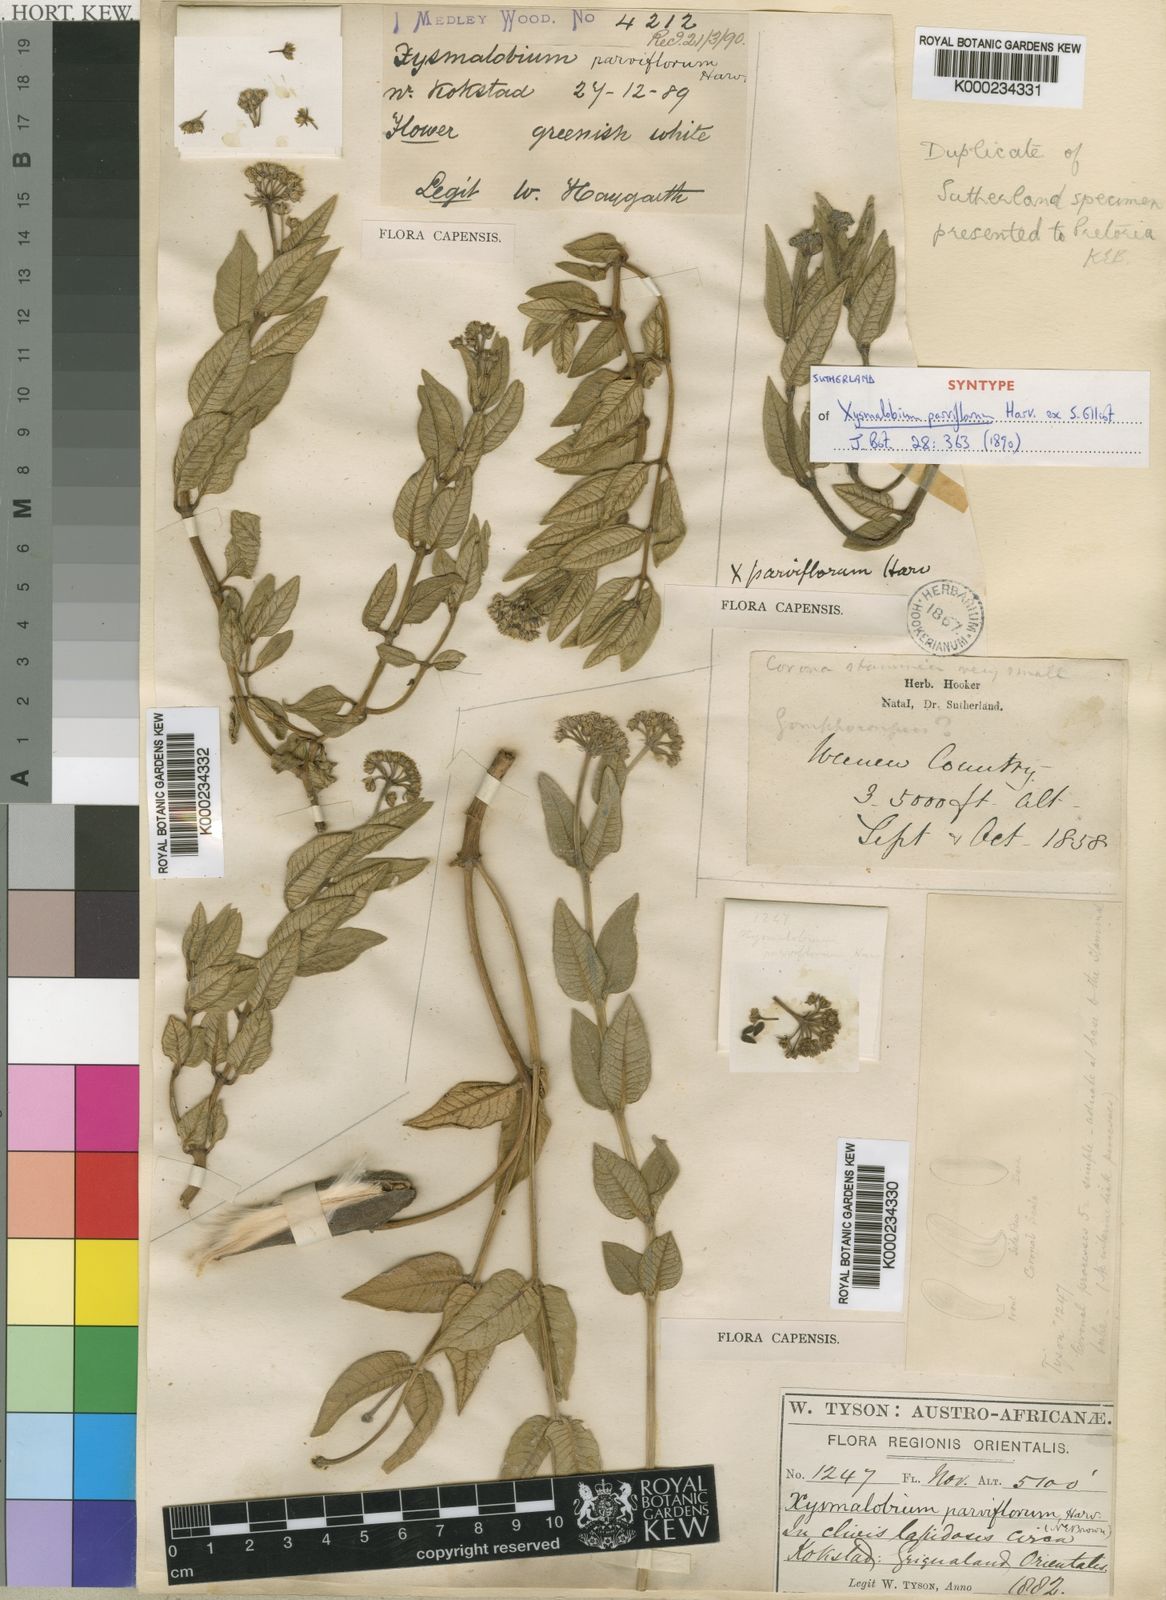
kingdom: Plantae
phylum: Tracheophyta
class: Magnoliopsida
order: Gentianales
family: Apocynaceae
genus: Xysmalobium
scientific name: Xysmalobium parviflorum
